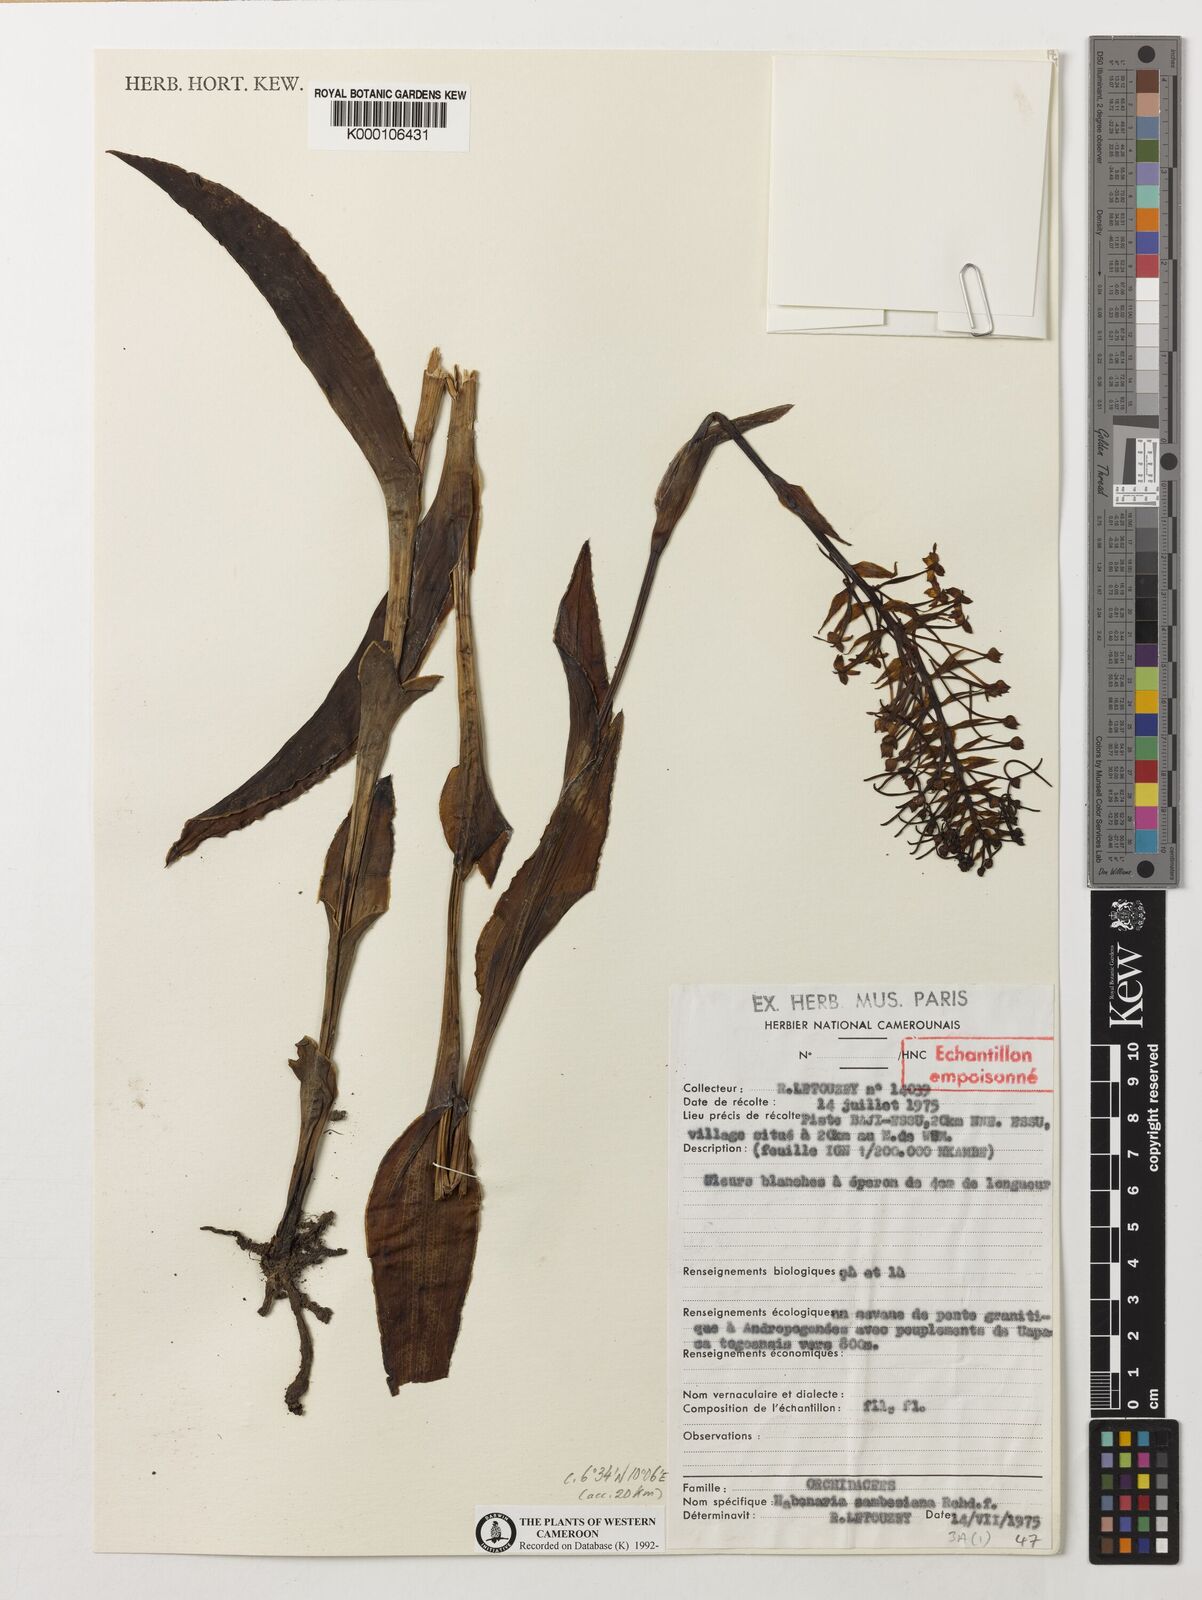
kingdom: Plantae
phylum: Tracheophyta
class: Liliopsida
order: Asparagales
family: Orchidaceae
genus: Habenaria
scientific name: Habenaria zambesina
